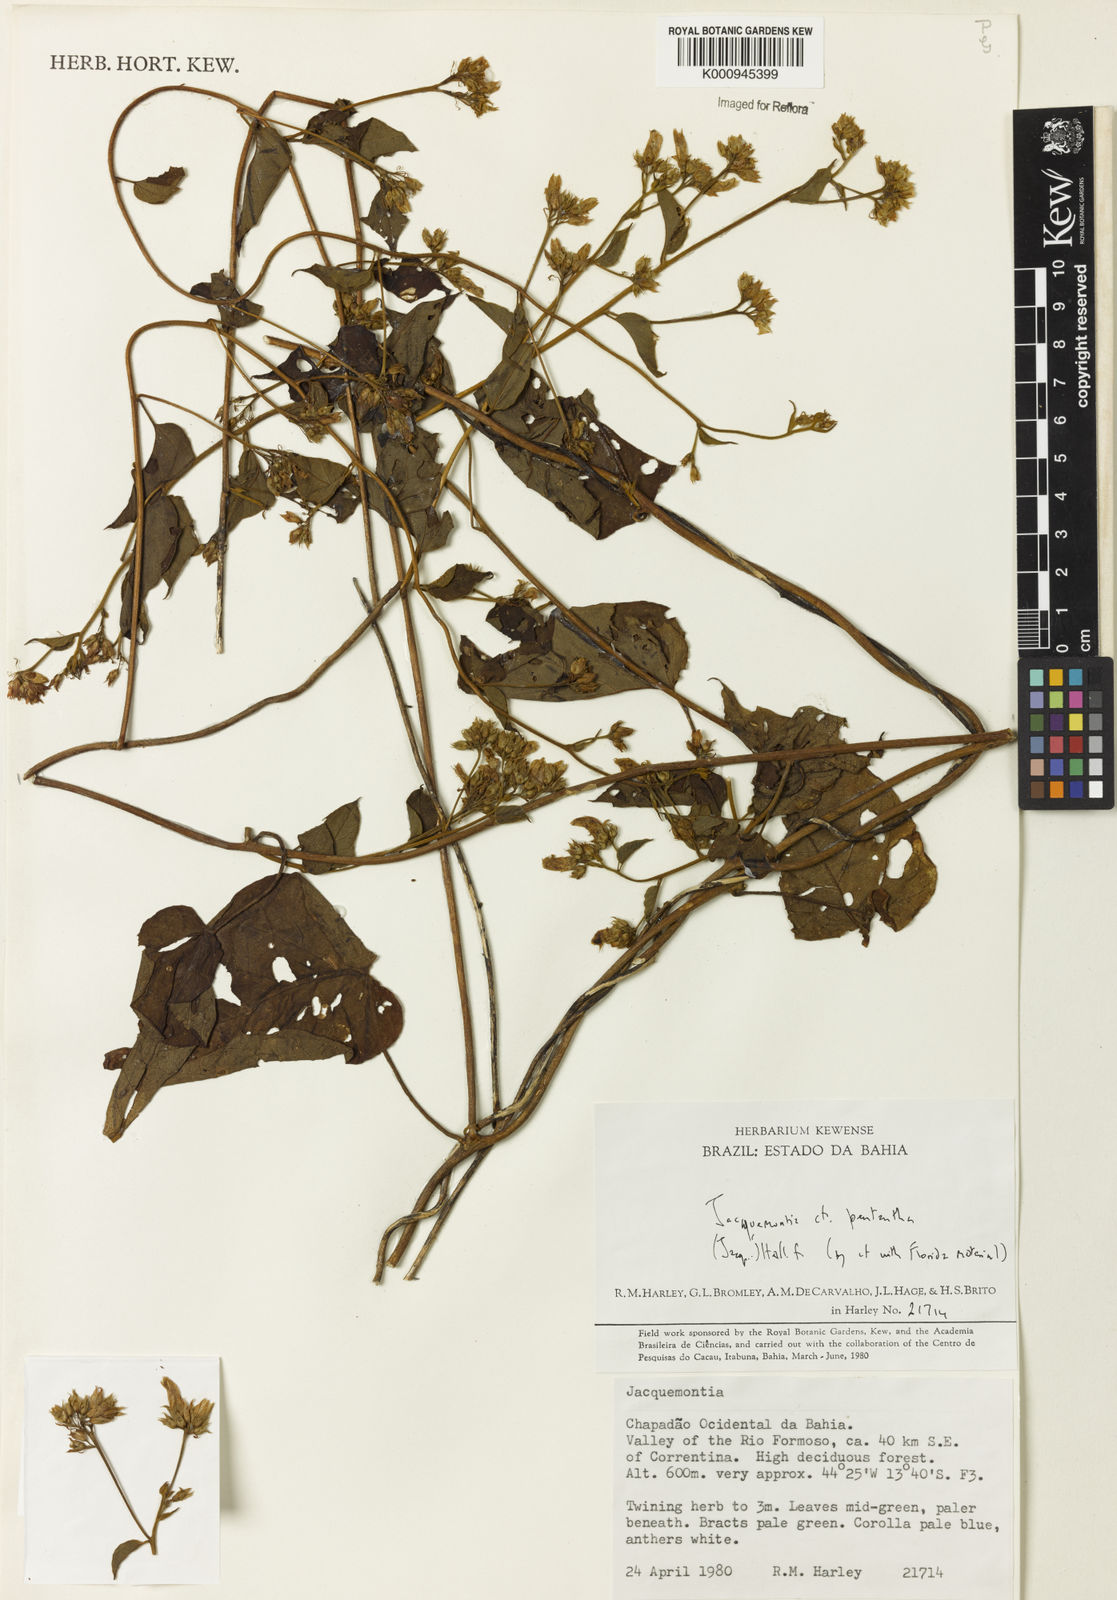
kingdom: Plantae
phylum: Tracheophyta
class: Magnoliopsida
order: Solanales
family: Convolvulaceae
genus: Jacquemontia
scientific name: Jacquemontia pentanthos
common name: Skyblue clustervine
